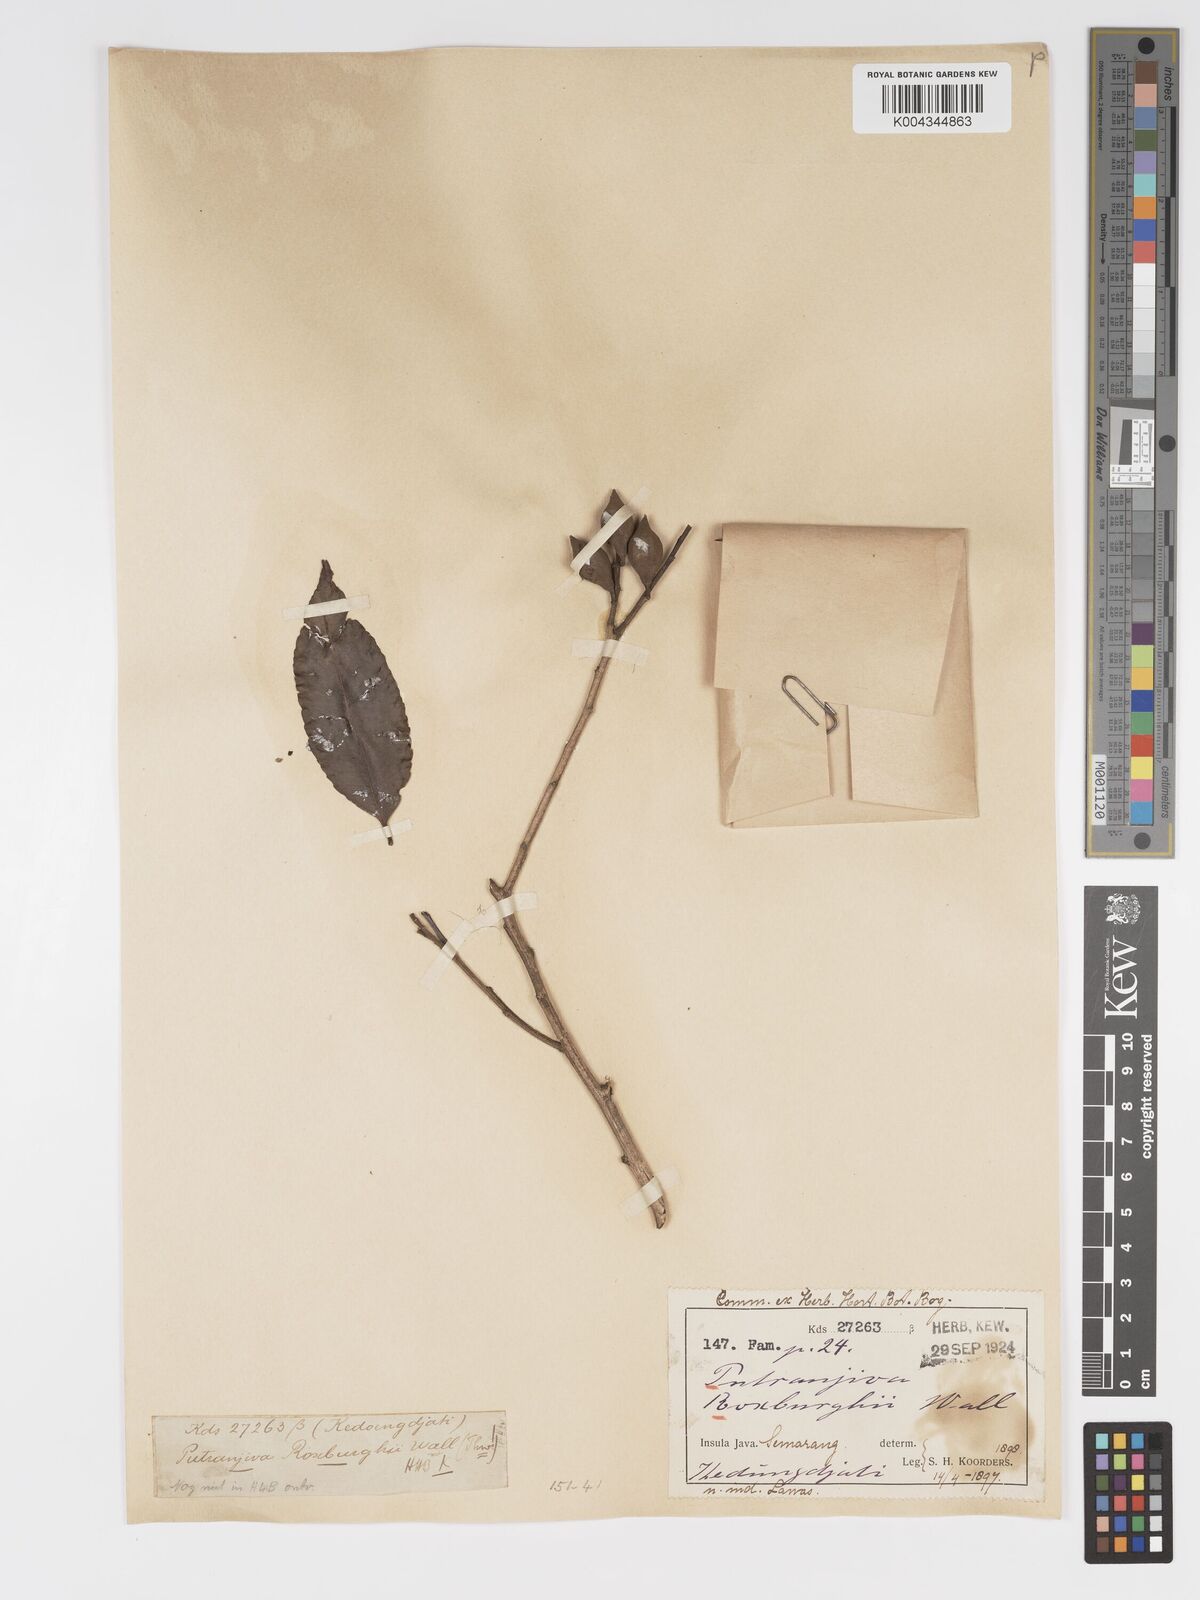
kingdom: Plantae
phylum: Tracheophyta
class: Magnoliopsida
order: Malpighiales
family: Putranjivaceae
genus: Putranjiva
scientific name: Putranjiva roxburghii
